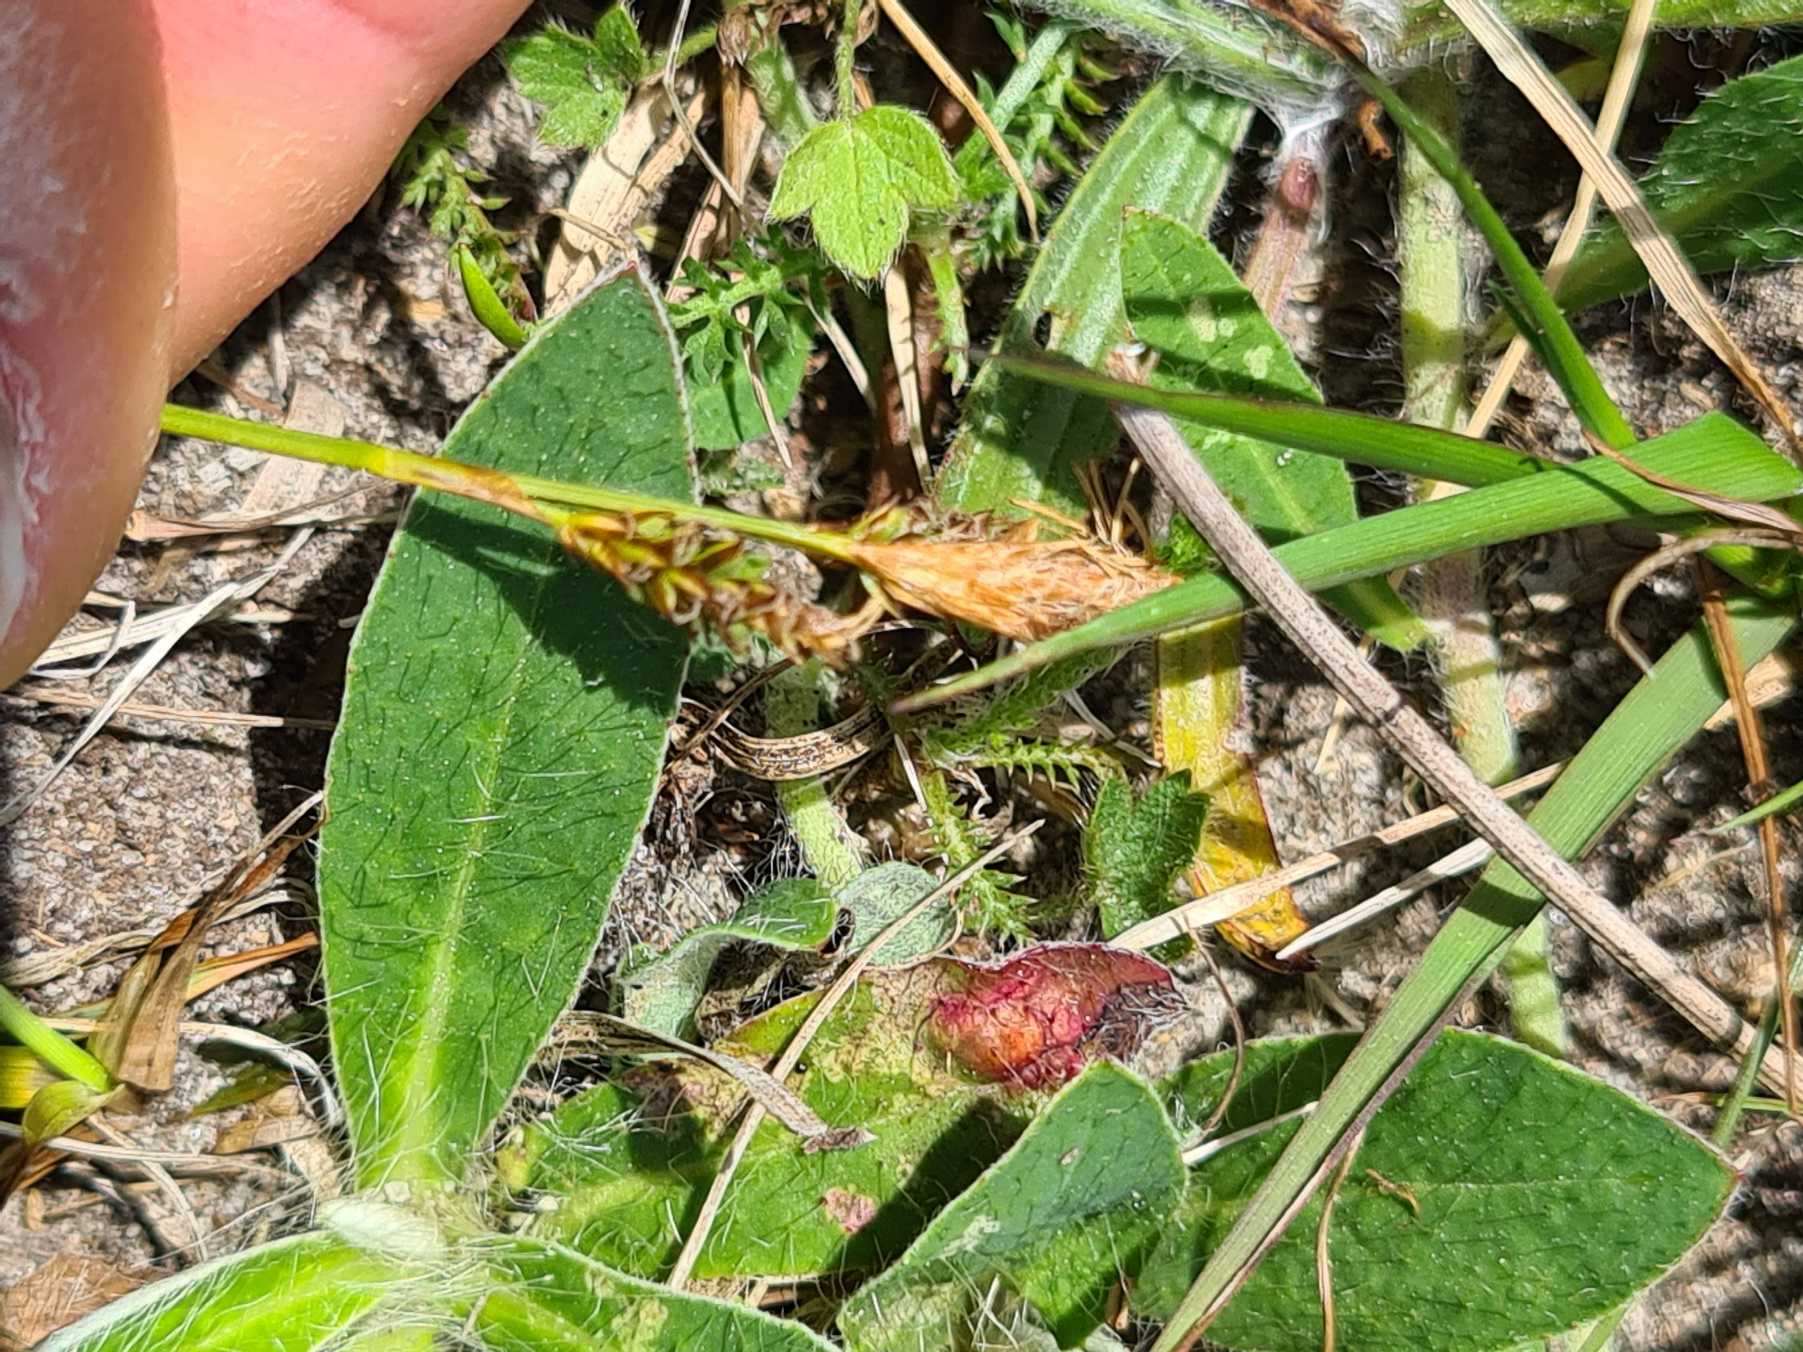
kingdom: Plantae
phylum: Tracheophyta
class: Liliopsida
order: Poales
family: Cyperaceae
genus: Carex
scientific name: Carex caryophyllea
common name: Vår-star
